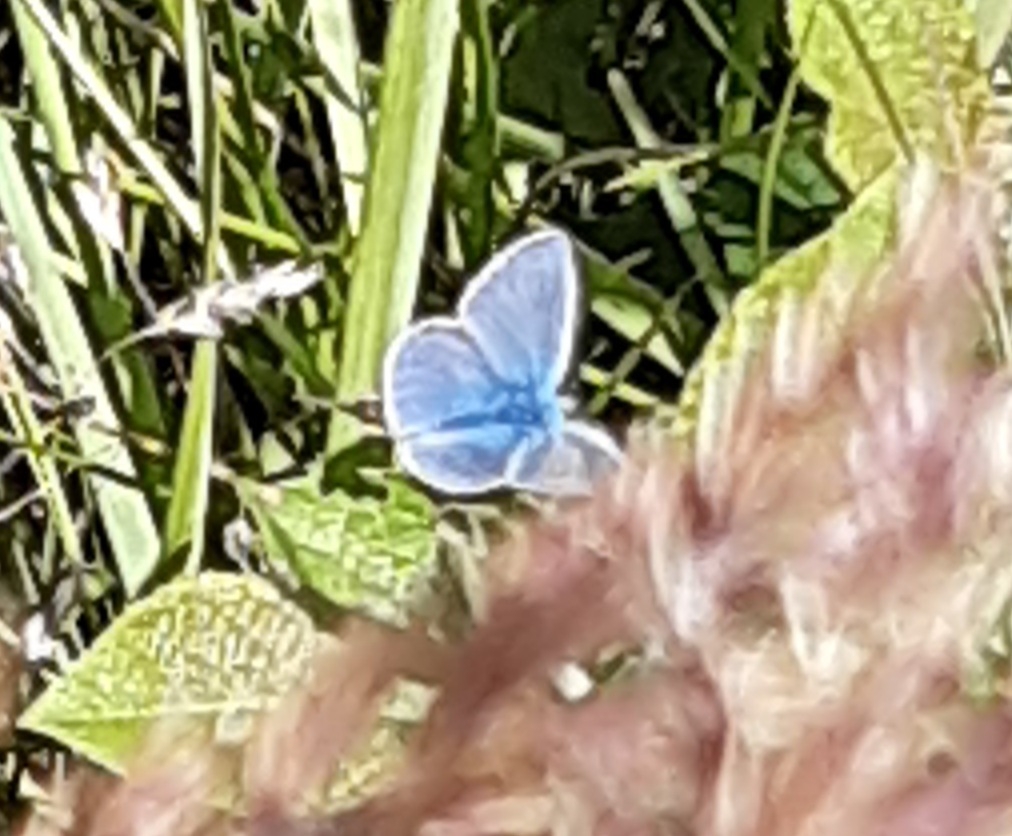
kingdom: Animalia
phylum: Arthropoda
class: Insecta
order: Lepidoptera
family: Lycaenidae
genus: Polyommatus
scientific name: Polyommatus icarus
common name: Almindelig blåfugl
